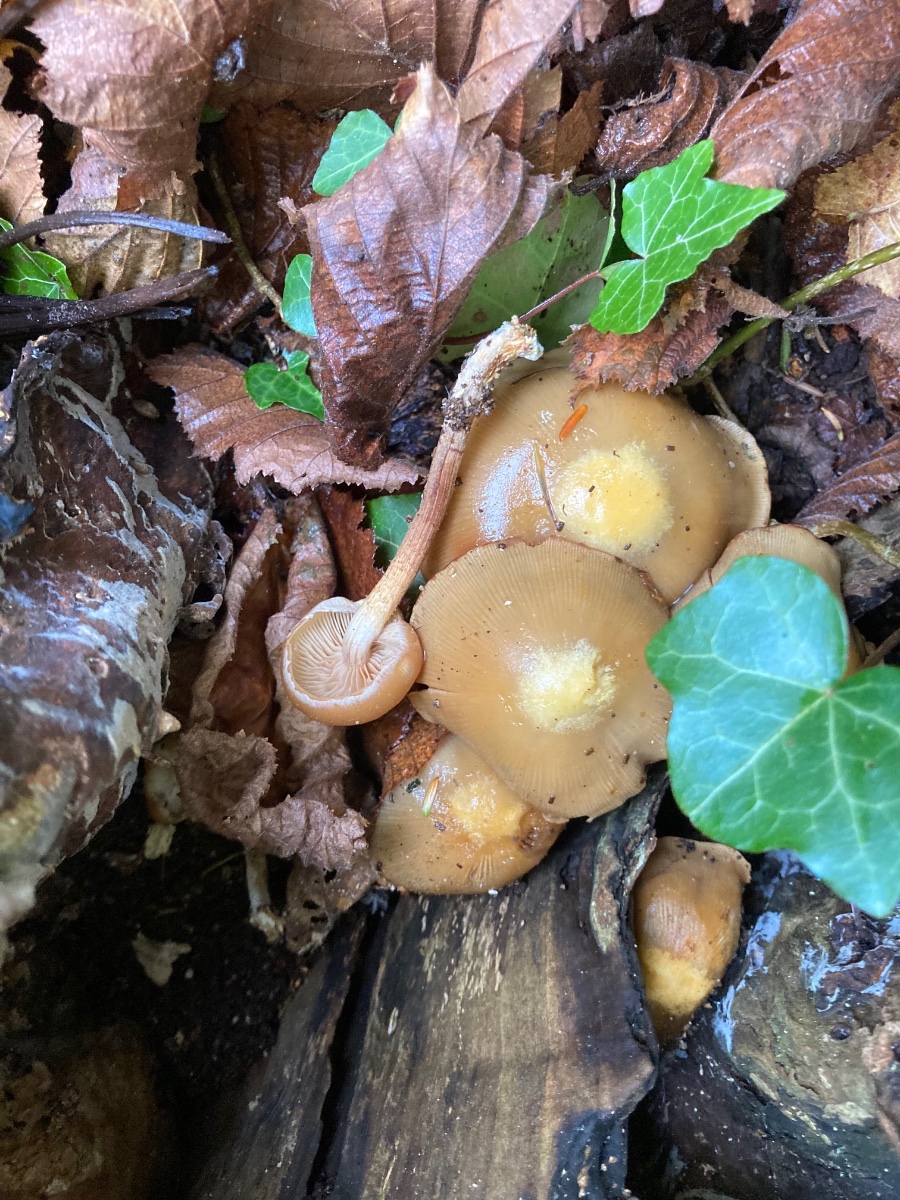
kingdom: Fungi
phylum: Basidiomycota
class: Agaricomycetes
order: Agaricales
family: Strophariaceae
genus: Kuehneromyces
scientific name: Kuehneromyces mutabilis
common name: foranderlig skælhat
